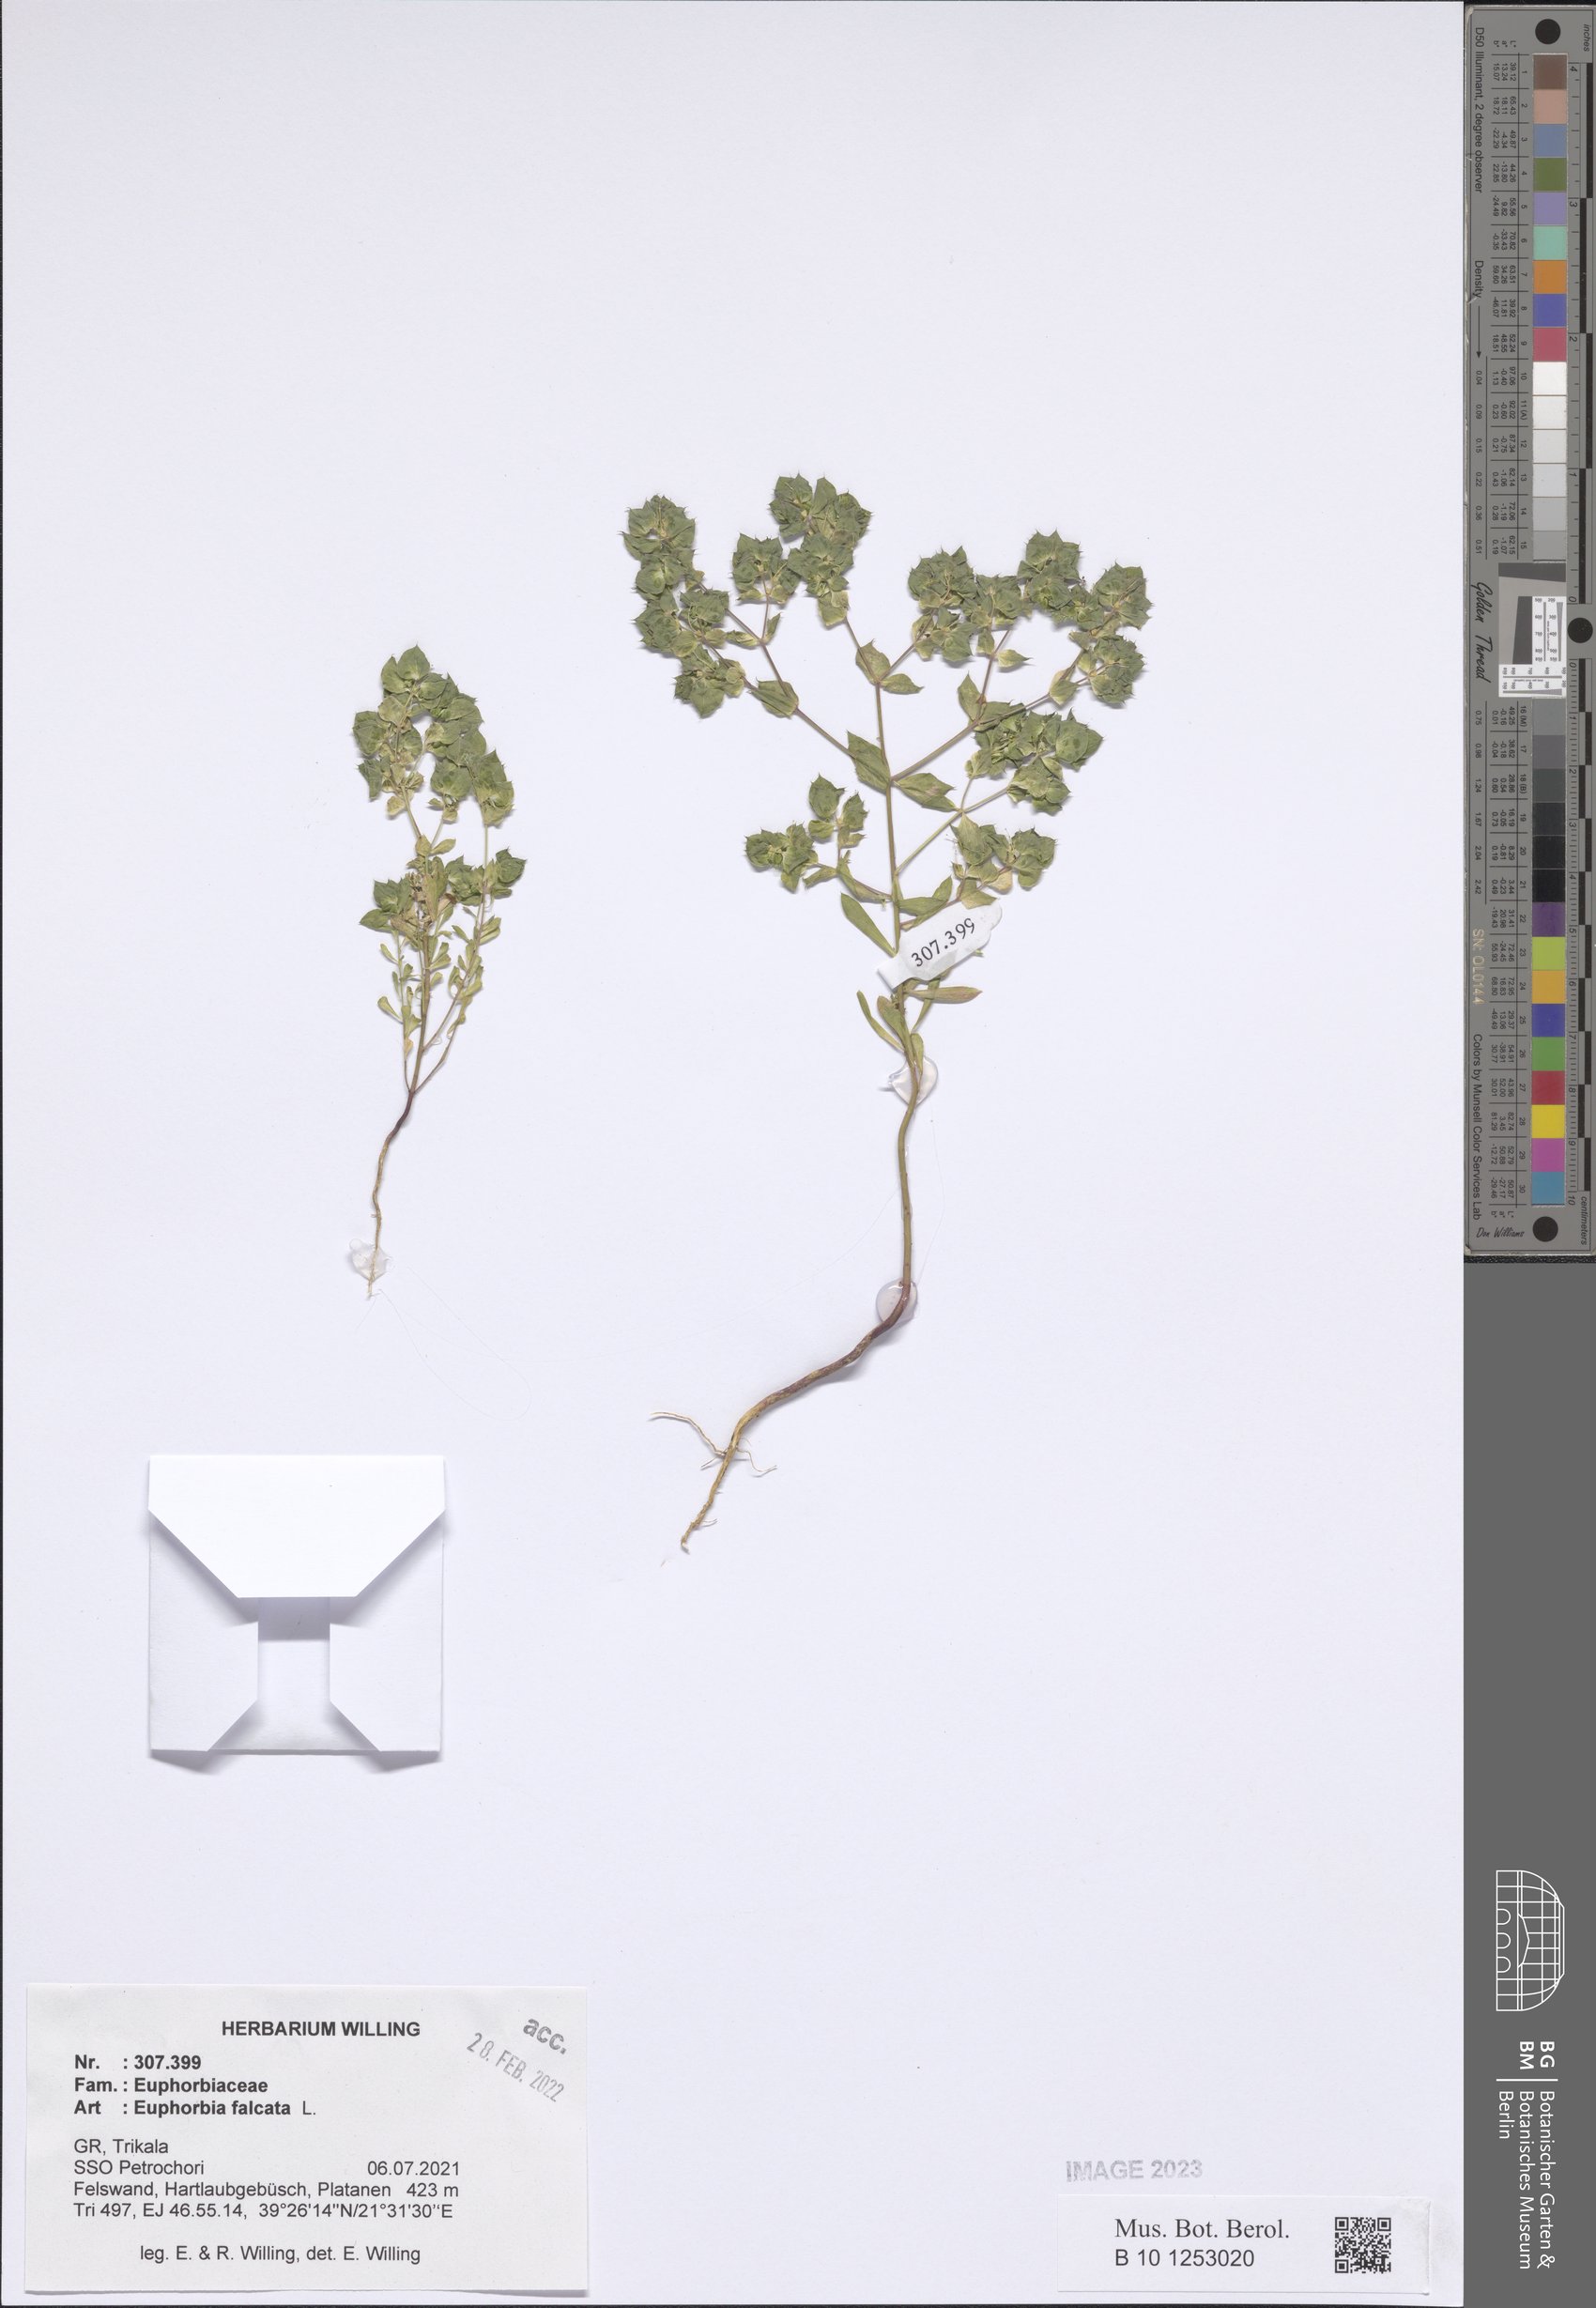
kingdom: Plantae
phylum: Tracheophyta
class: Magnoliopsida
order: Malpighiales
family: Euphorbiaceae
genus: Euphorbia
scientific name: Euphorbia falcata
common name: Sickle spurge
